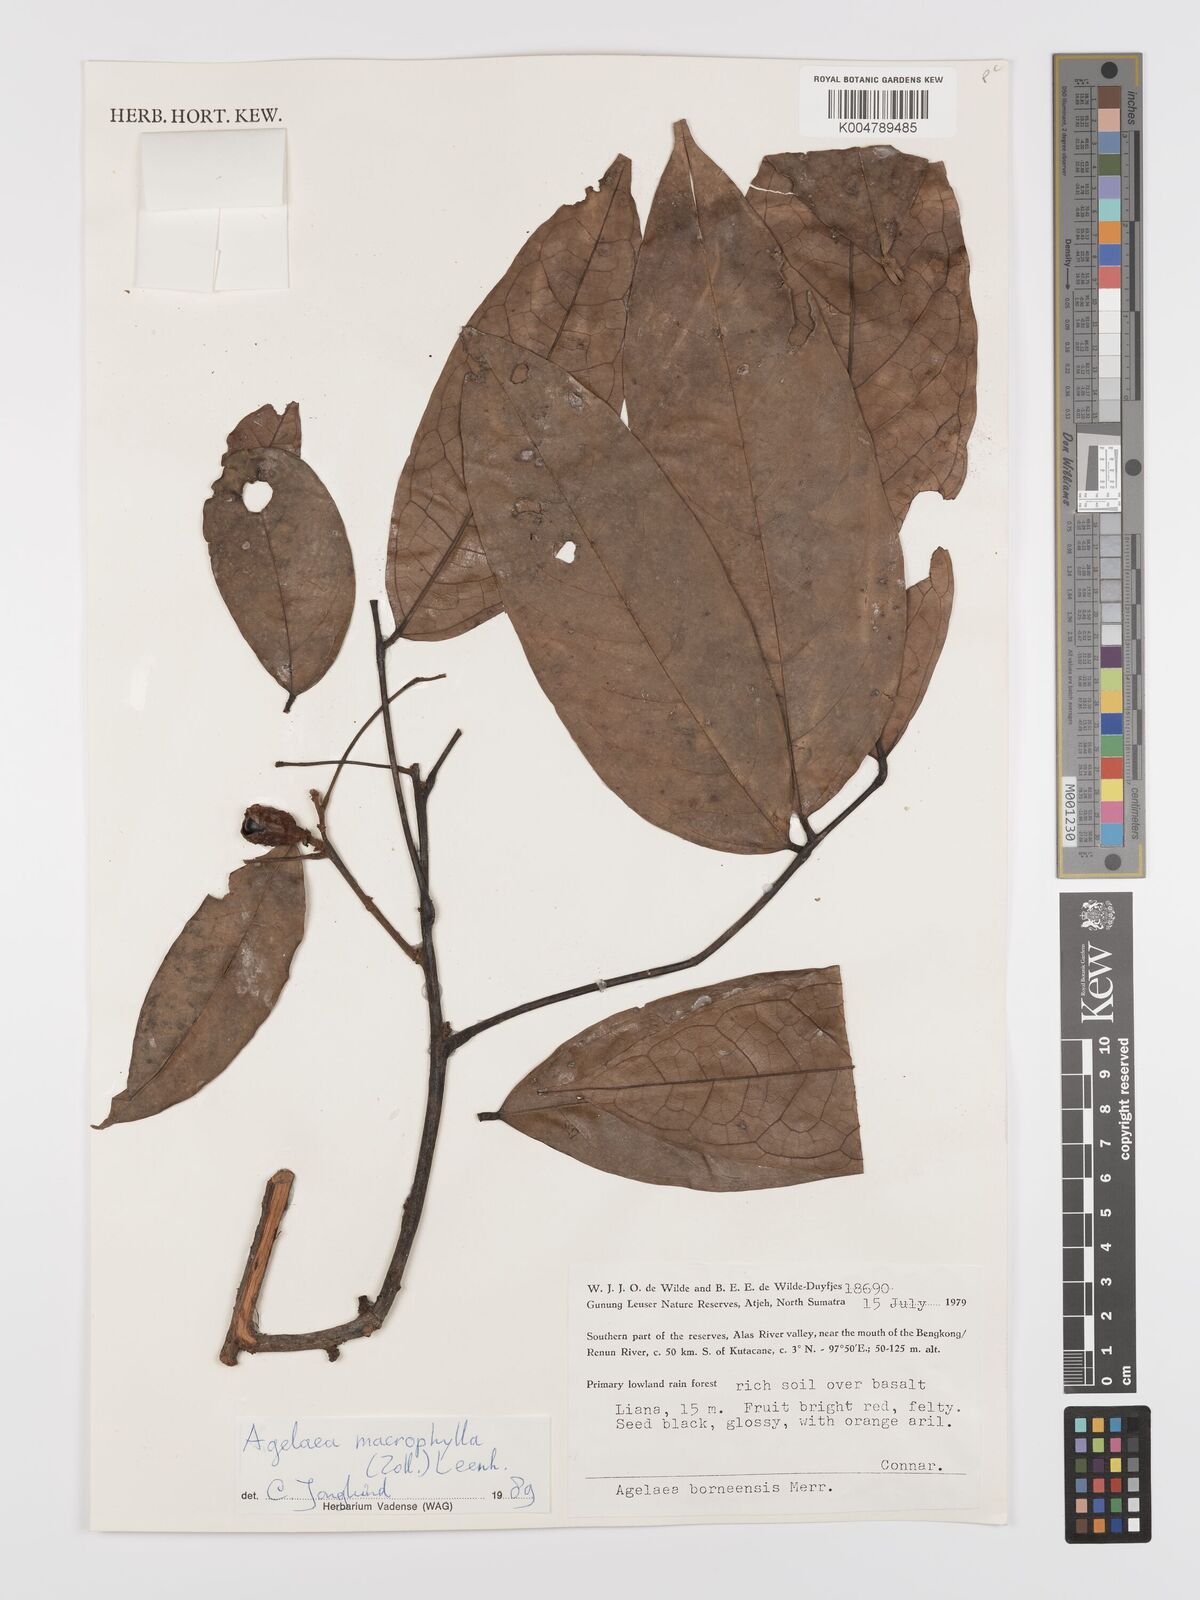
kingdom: Plantae
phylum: Tracheophyta
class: Magnoliopsida
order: Oxalidales
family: Connaraceae
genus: Agelaea
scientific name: Agelaea macrophylla
